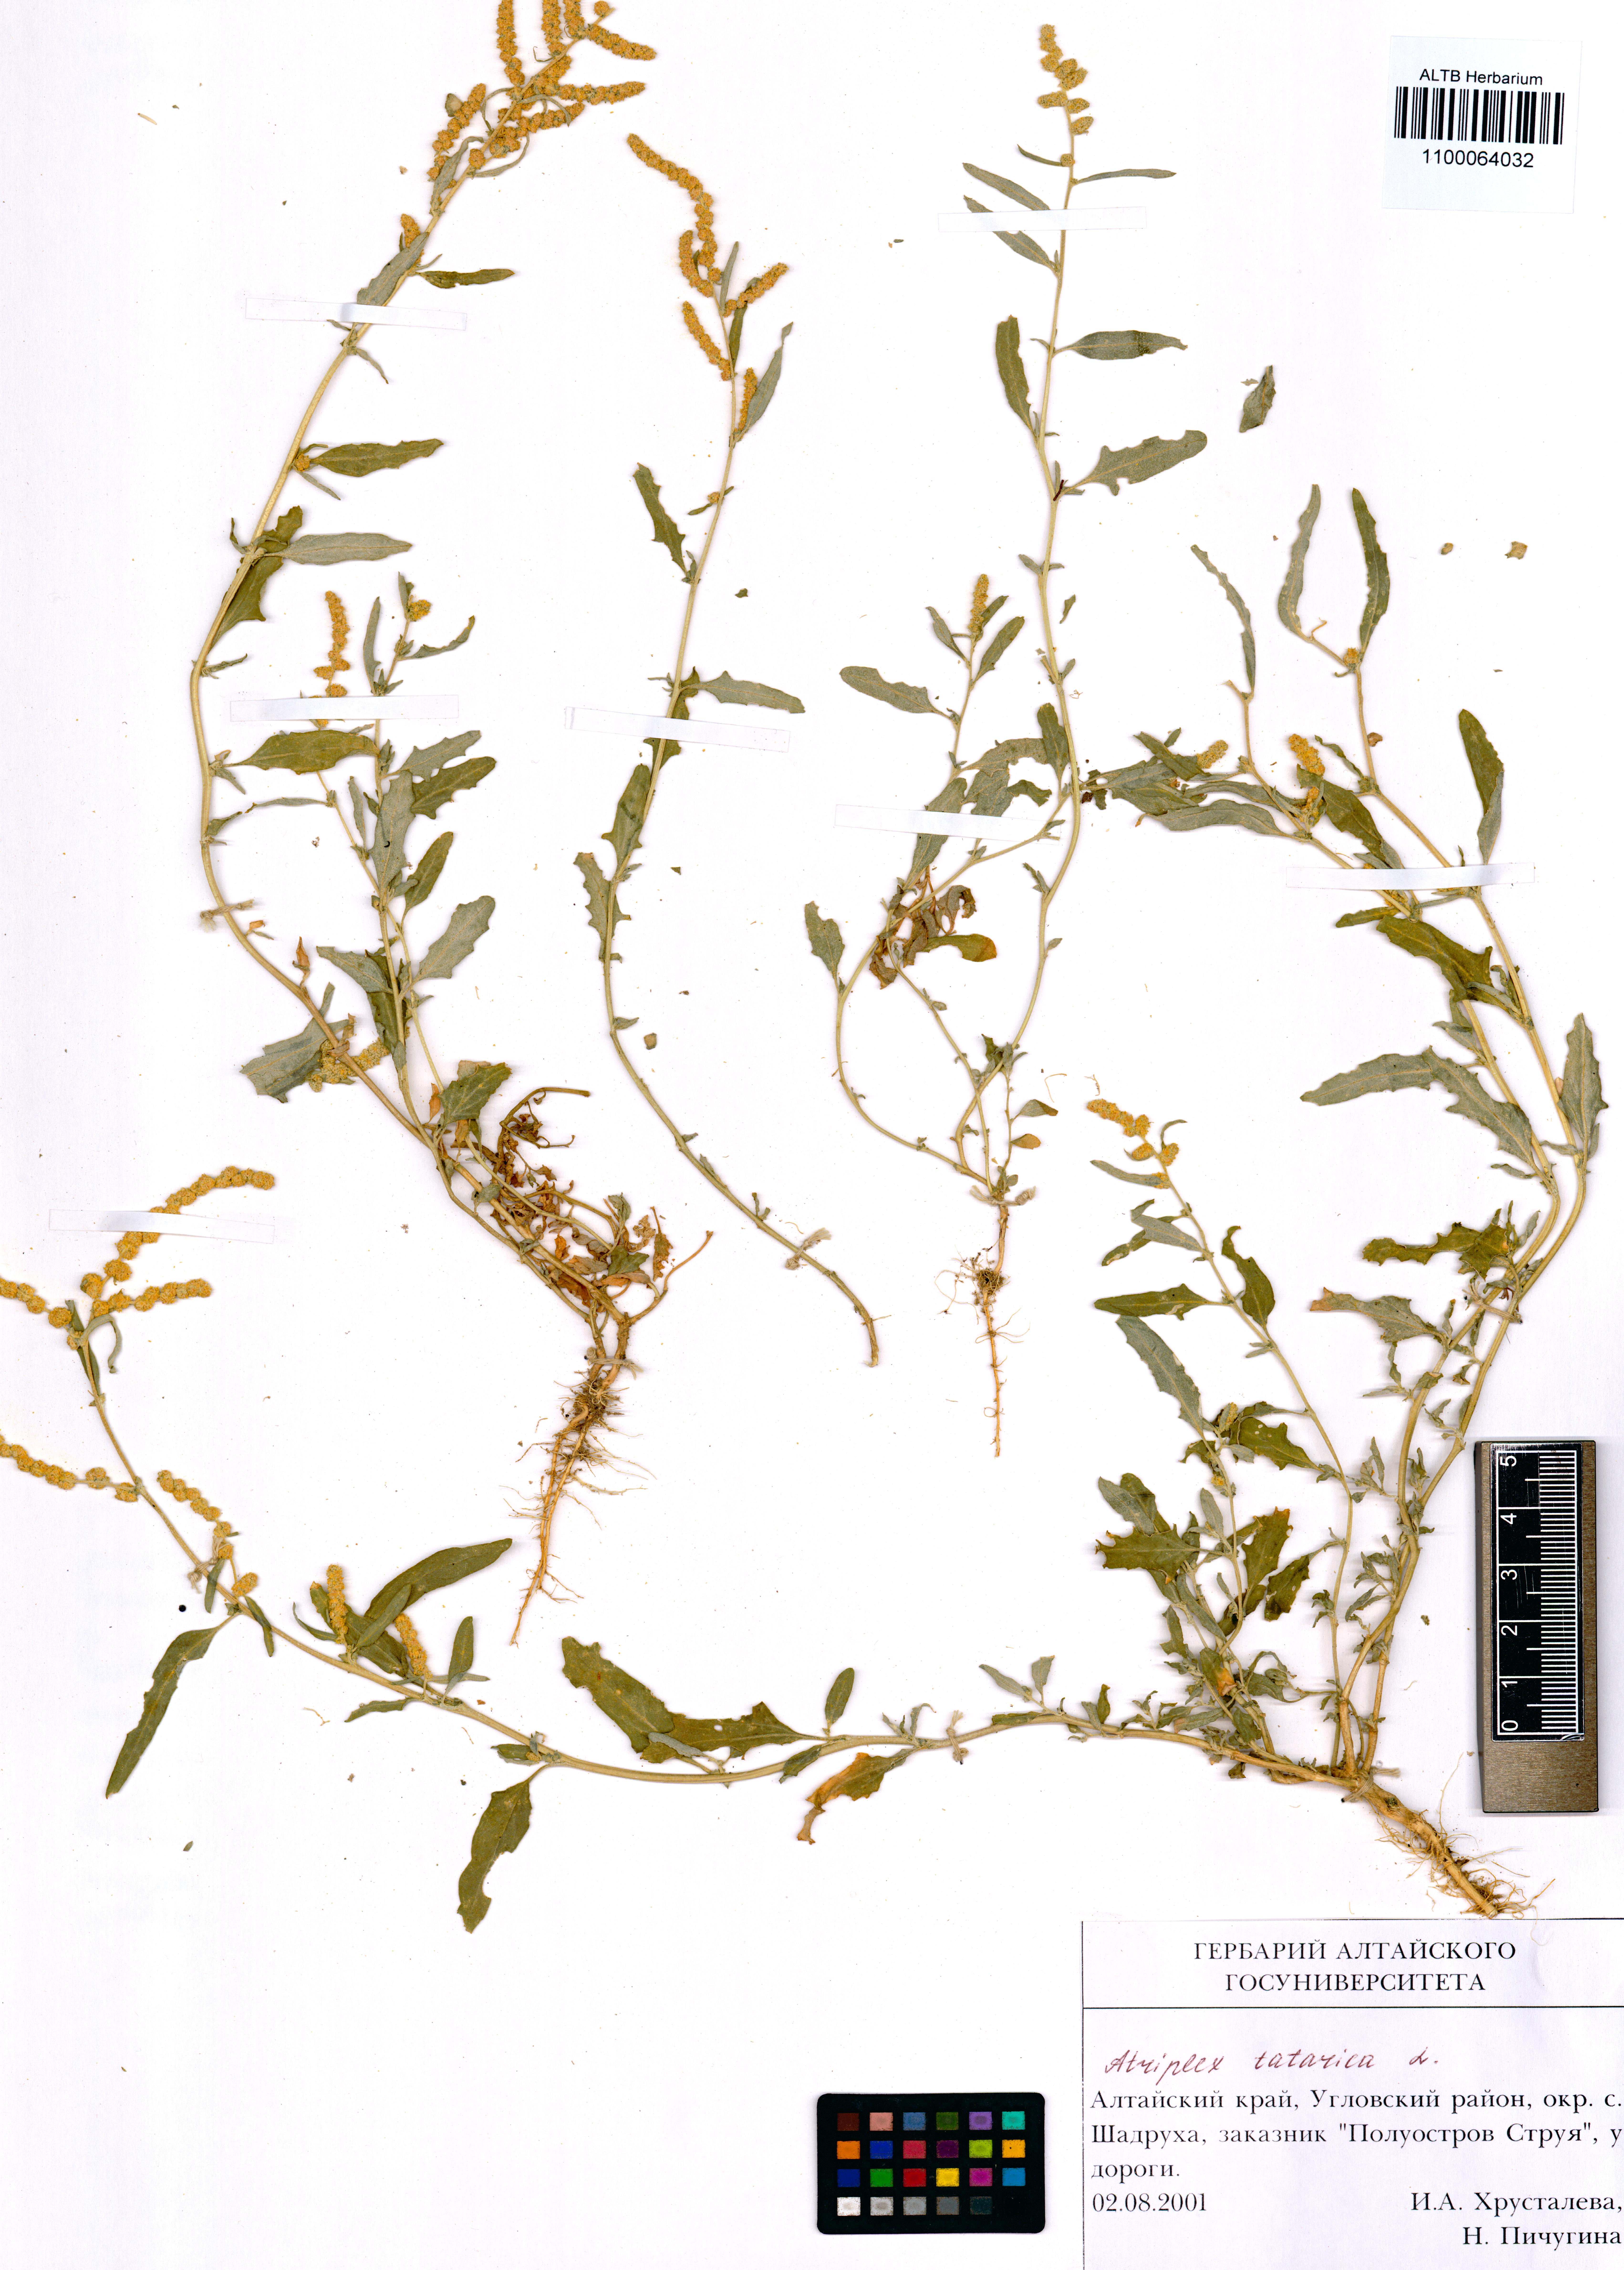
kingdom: Plantae
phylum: Tracheophyta
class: Magnoliopsida
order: Caryophyllales
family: Amaranthaceae
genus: Atriplex
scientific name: Atriplex tatarica
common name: Tatarian orache
